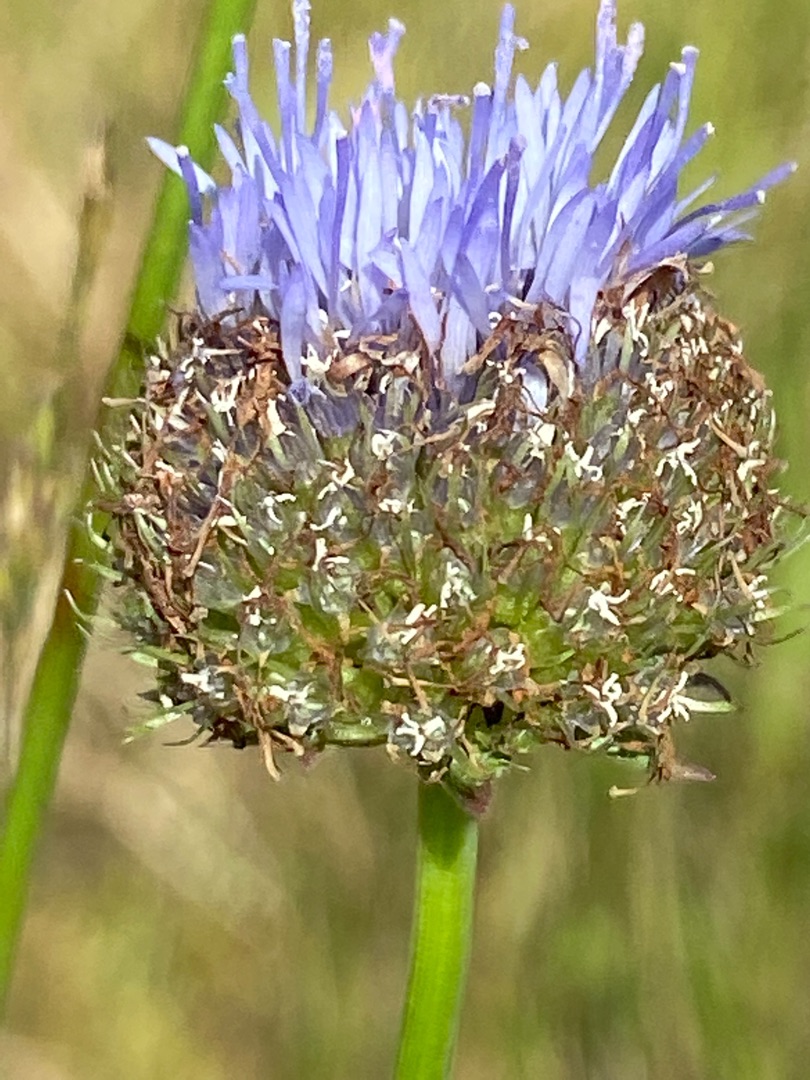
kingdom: Plantae
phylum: Tracheophyta
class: Magnoliopsida
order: Asterales
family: Campanulaceae
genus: Jasione
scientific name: Jasione montana
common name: Blåmunke
